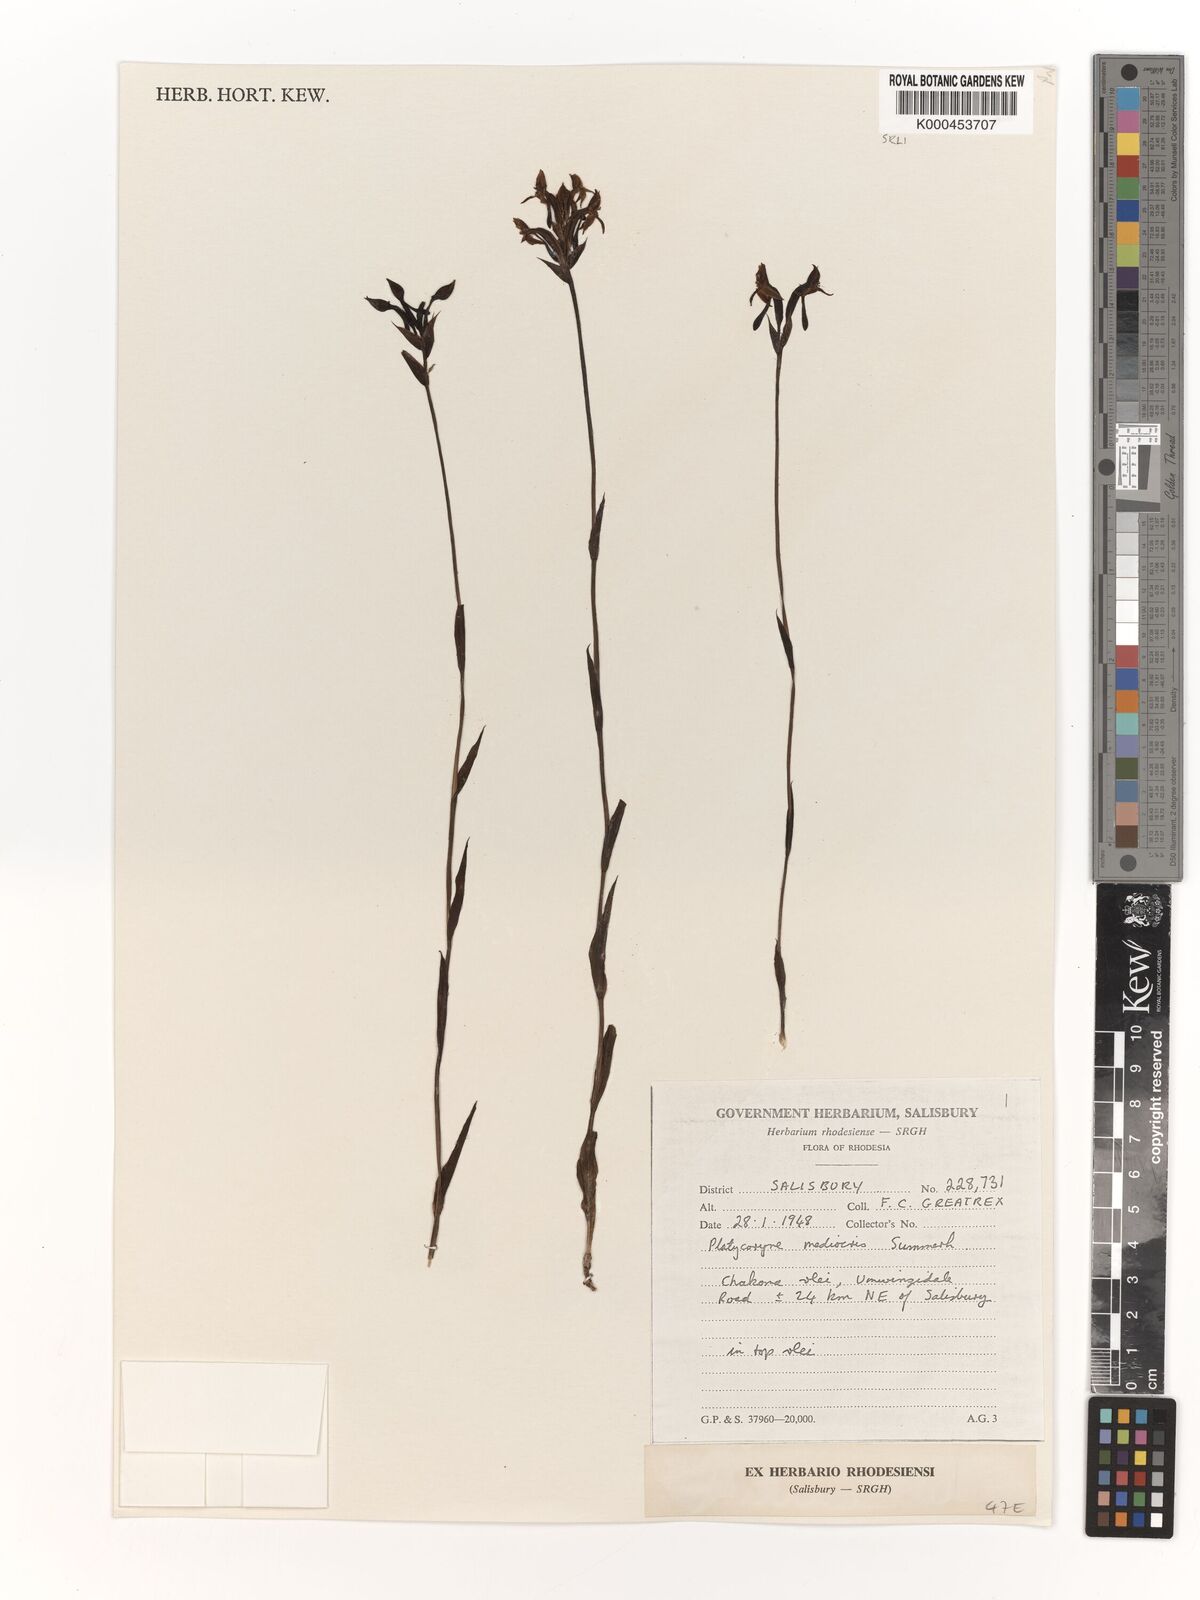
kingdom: Plantae
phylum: Tracheophyta
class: Liliopsida
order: Asparagales
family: Orchidaceae
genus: Platycoryne
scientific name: Platycoryne mediocris
